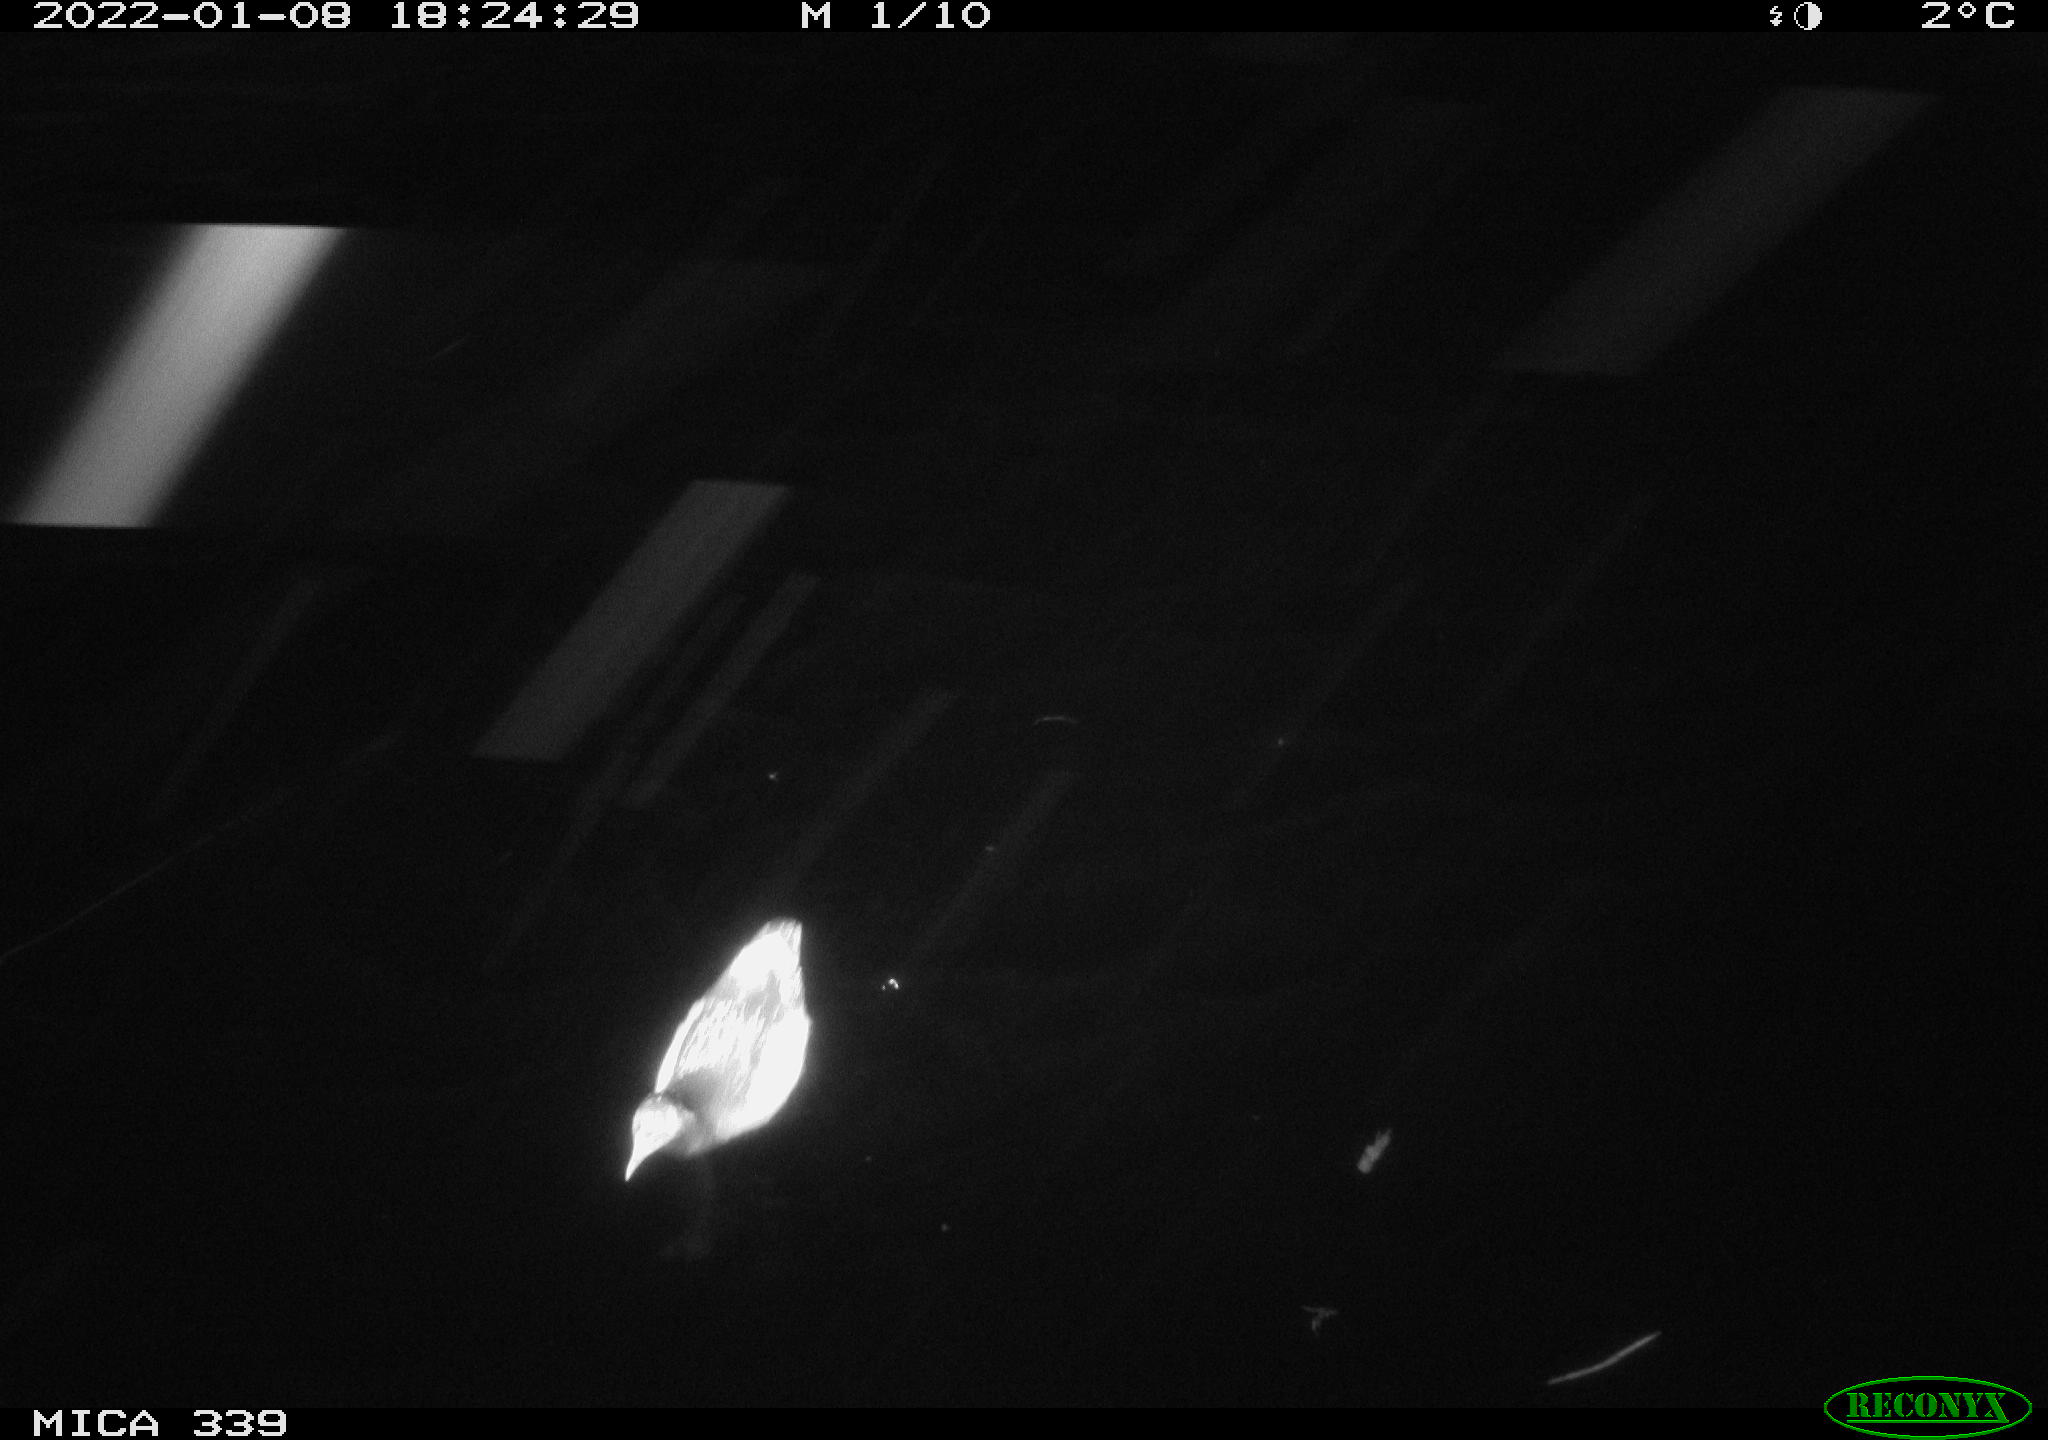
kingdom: Animalia
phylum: Chordata
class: Aves
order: Gruiformes
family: Rallidae
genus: Gallinula
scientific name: Gallinula chloropus
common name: Common moorhen
